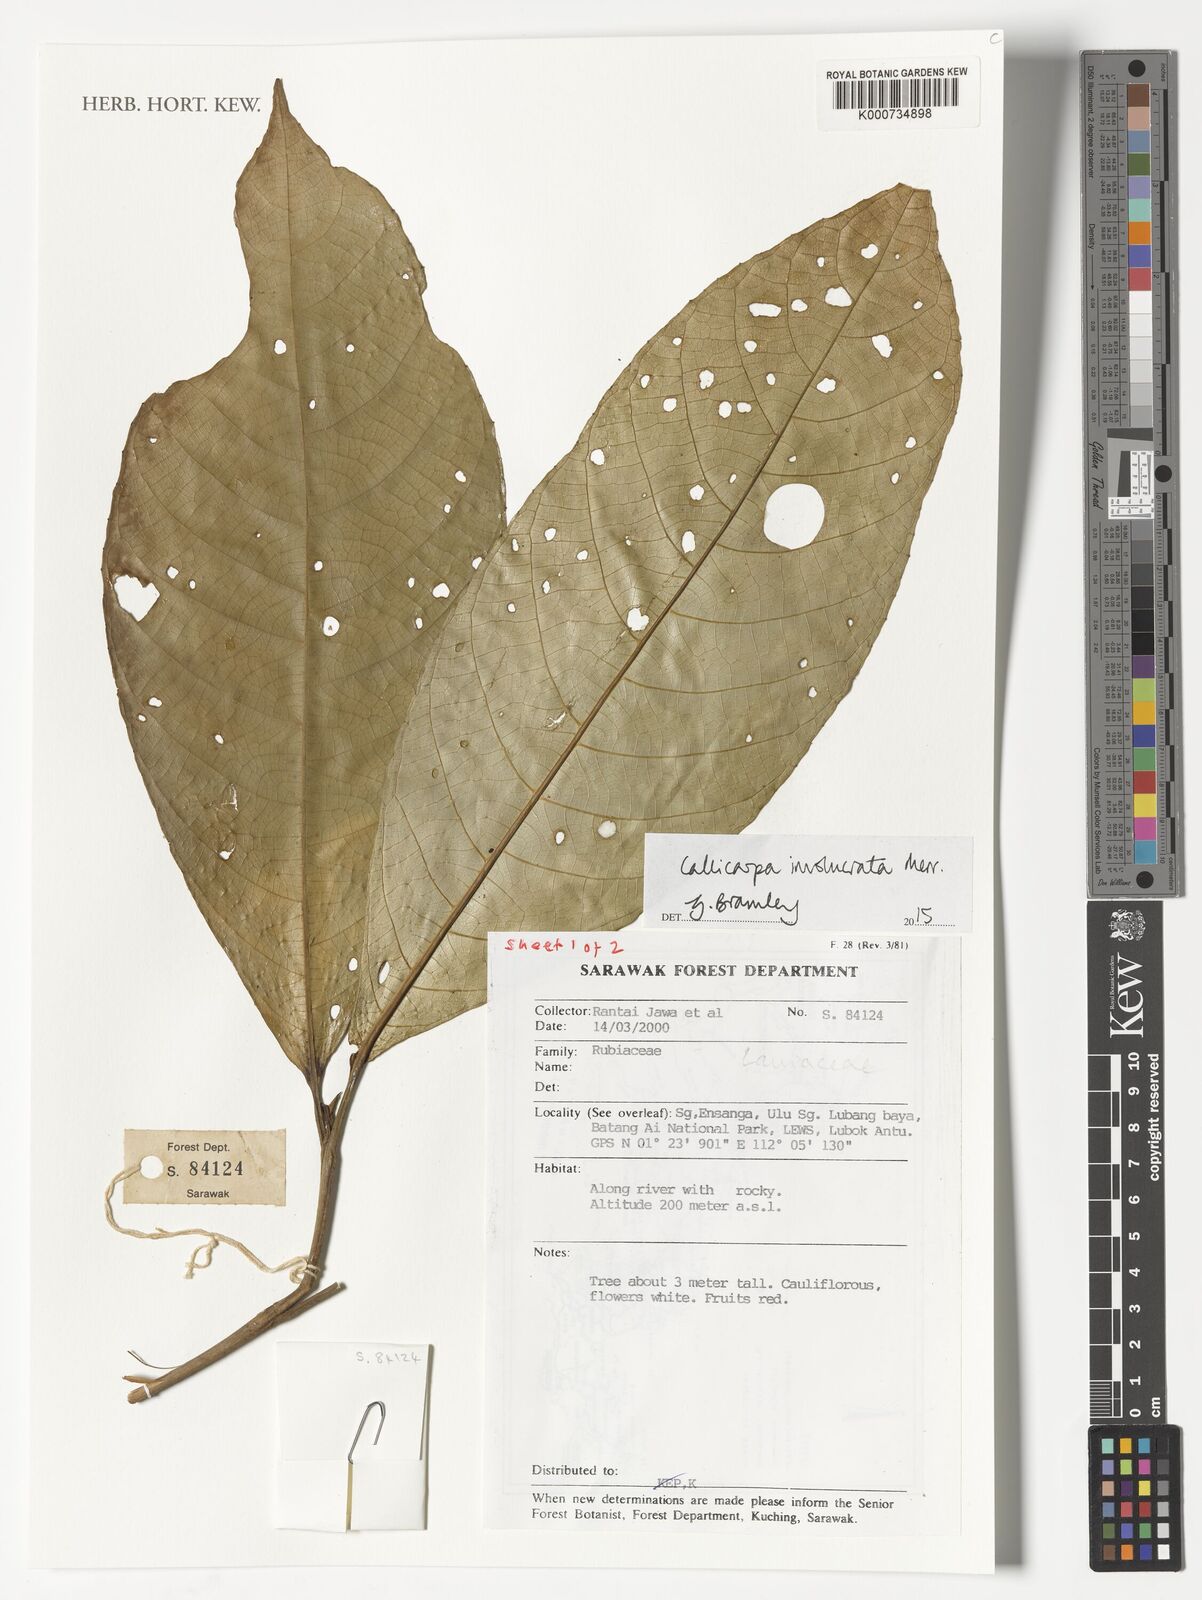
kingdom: Plantae
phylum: Tracheophyta
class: Magnoliopsida
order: Lamiales
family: Lamiaceae
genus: Callicarpa
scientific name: Callicarpa involucrata
